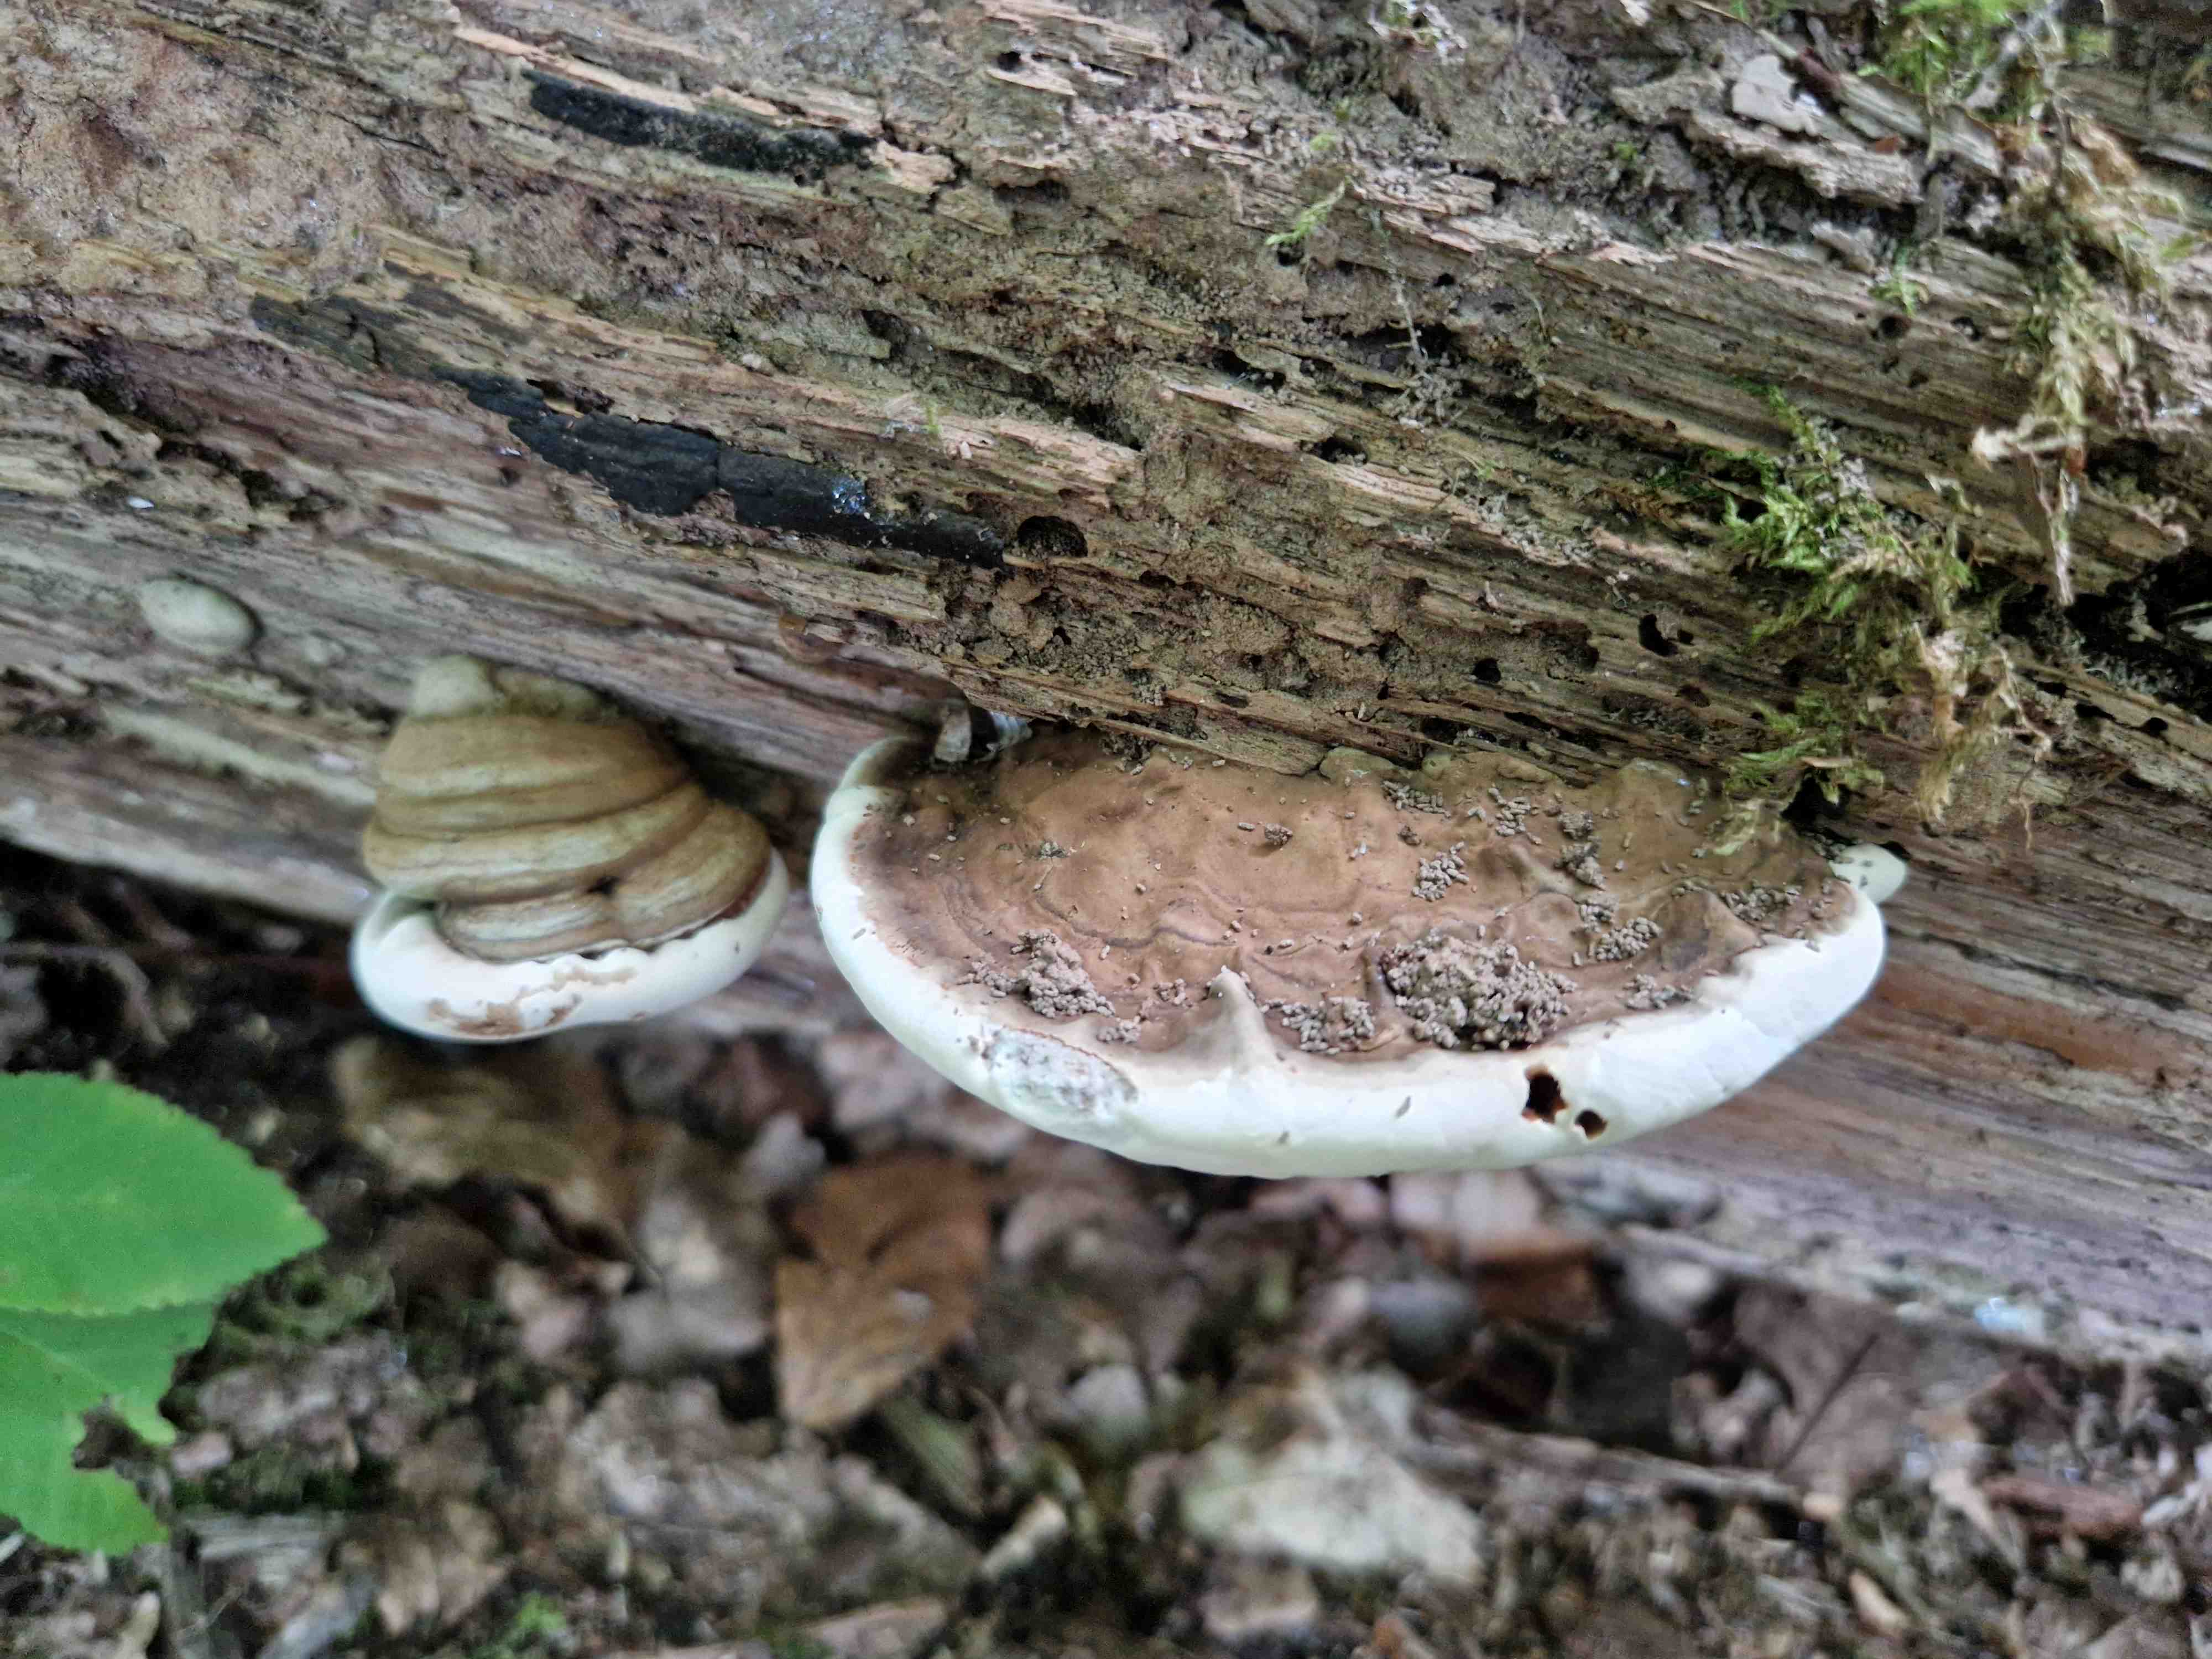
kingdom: Fungi
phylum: Basidiomycota
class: Agaricomycetes
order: Polyporales
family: Polyporaceae
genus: Ganoderma
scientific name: Ganoderma applanatum
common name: flad lakporesvamp
